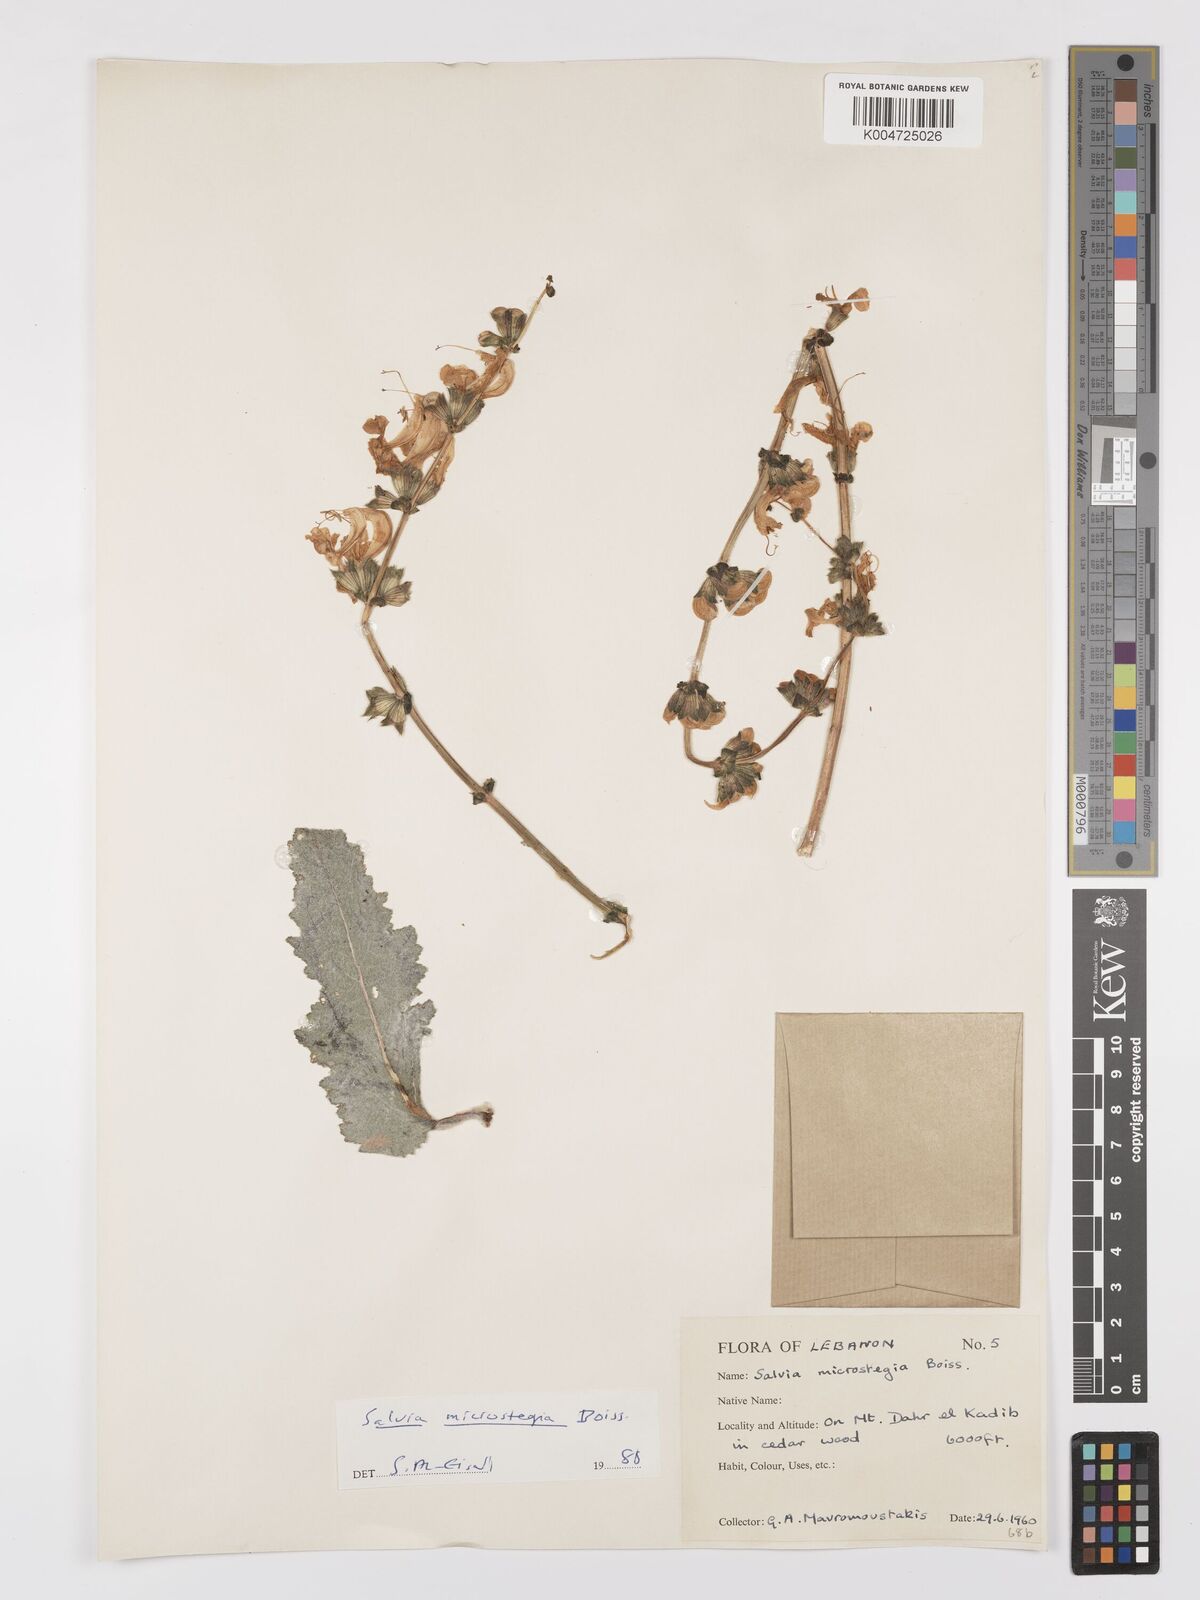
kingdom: Plantae
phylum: Tracheophyta
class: Magnoliopsida
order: Lamiales
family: Lamiaceae
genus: Salvia
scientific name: Salvia verbascifolia
